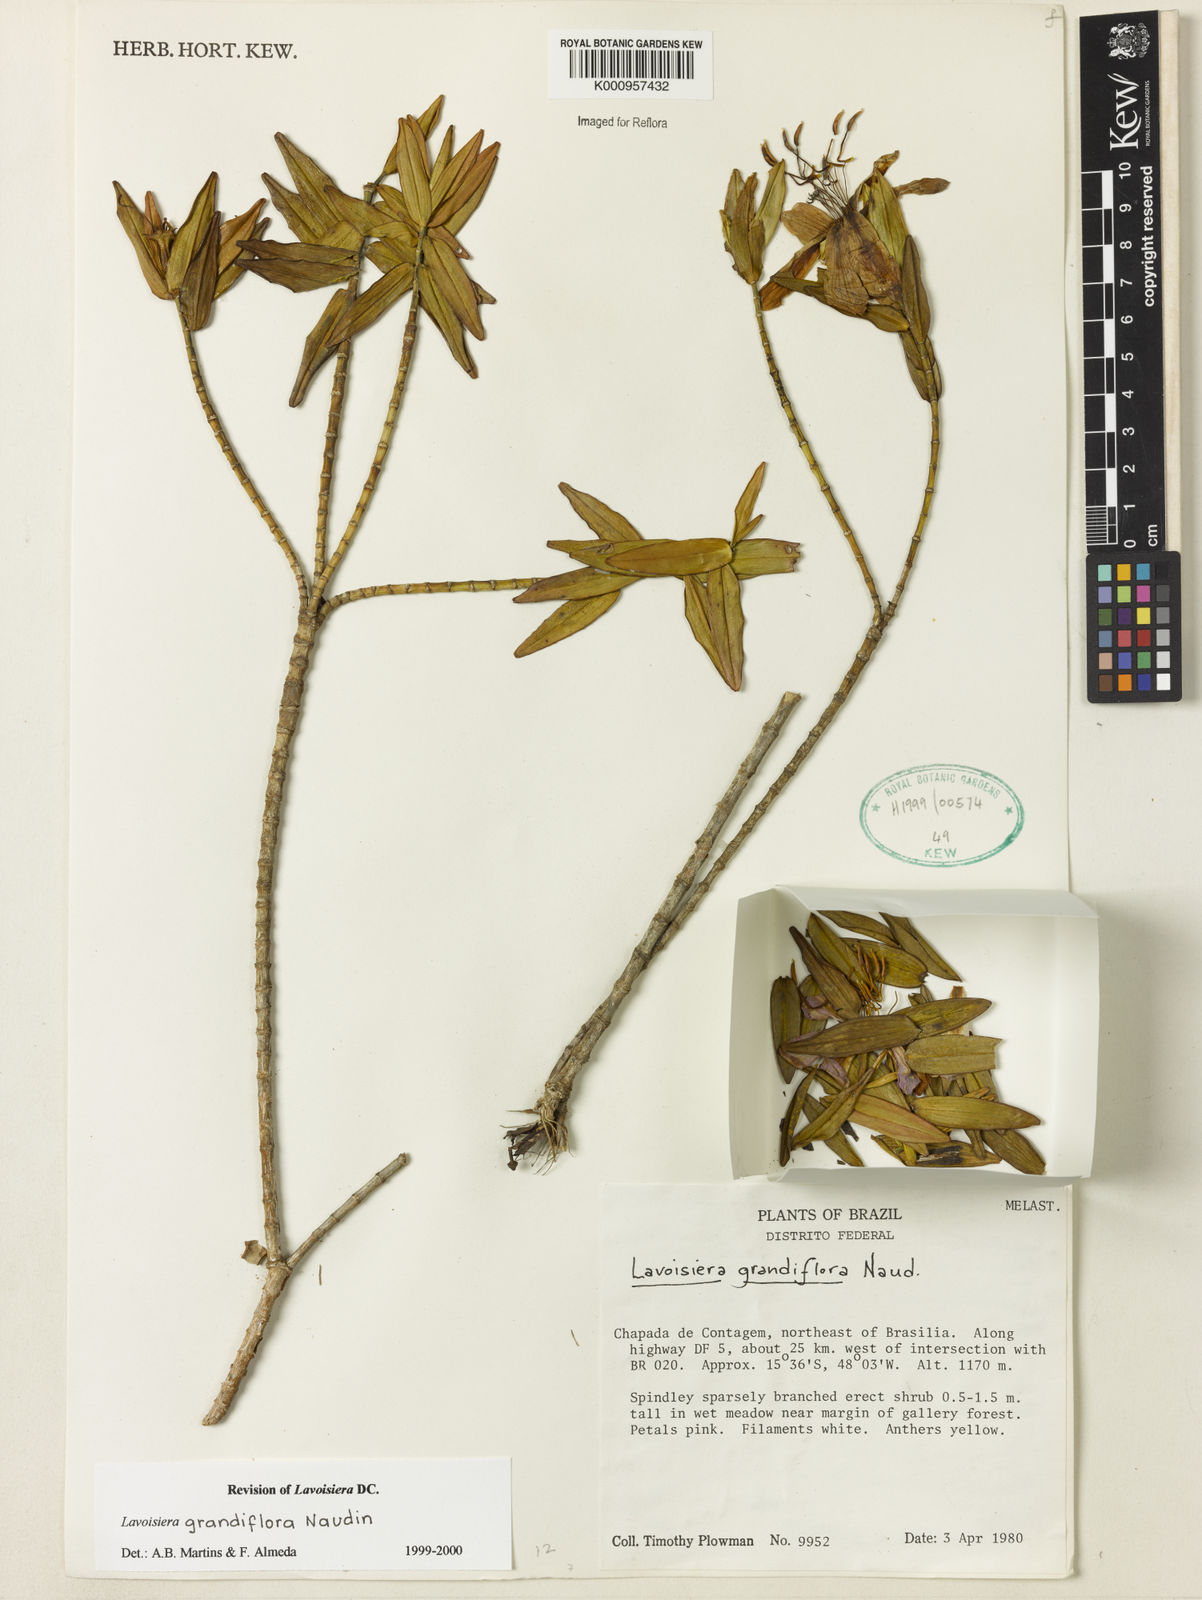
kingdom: Plantae
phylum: Tracheophyta
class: Magnoliopsida
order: Myrtales
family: Melastomataceae
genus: Microlicia
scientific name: Microlicia macrantha
